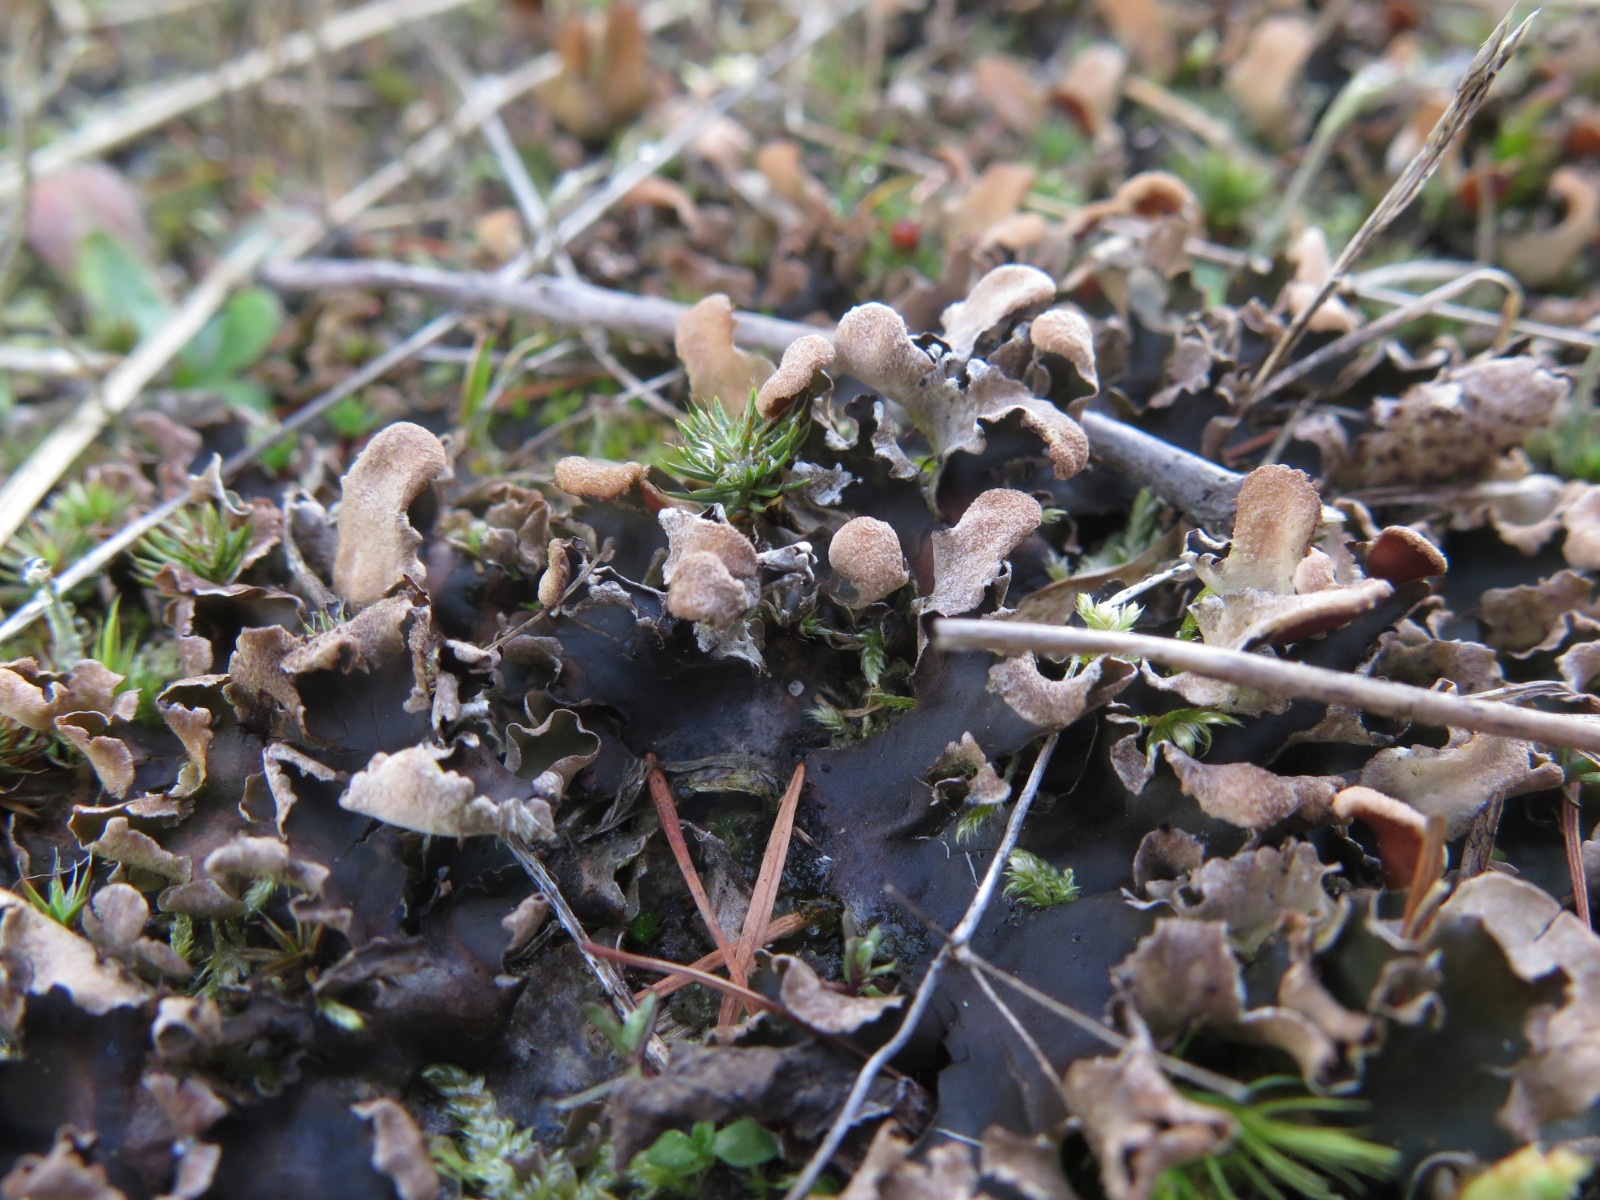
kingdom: Fungi
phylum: Ascomycota
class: Lecanoromycetes
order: Peltigerales
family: Peltigeraceae
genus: Peltigera
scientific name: Peltigera hymenina
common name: hinde-skjoldlav
